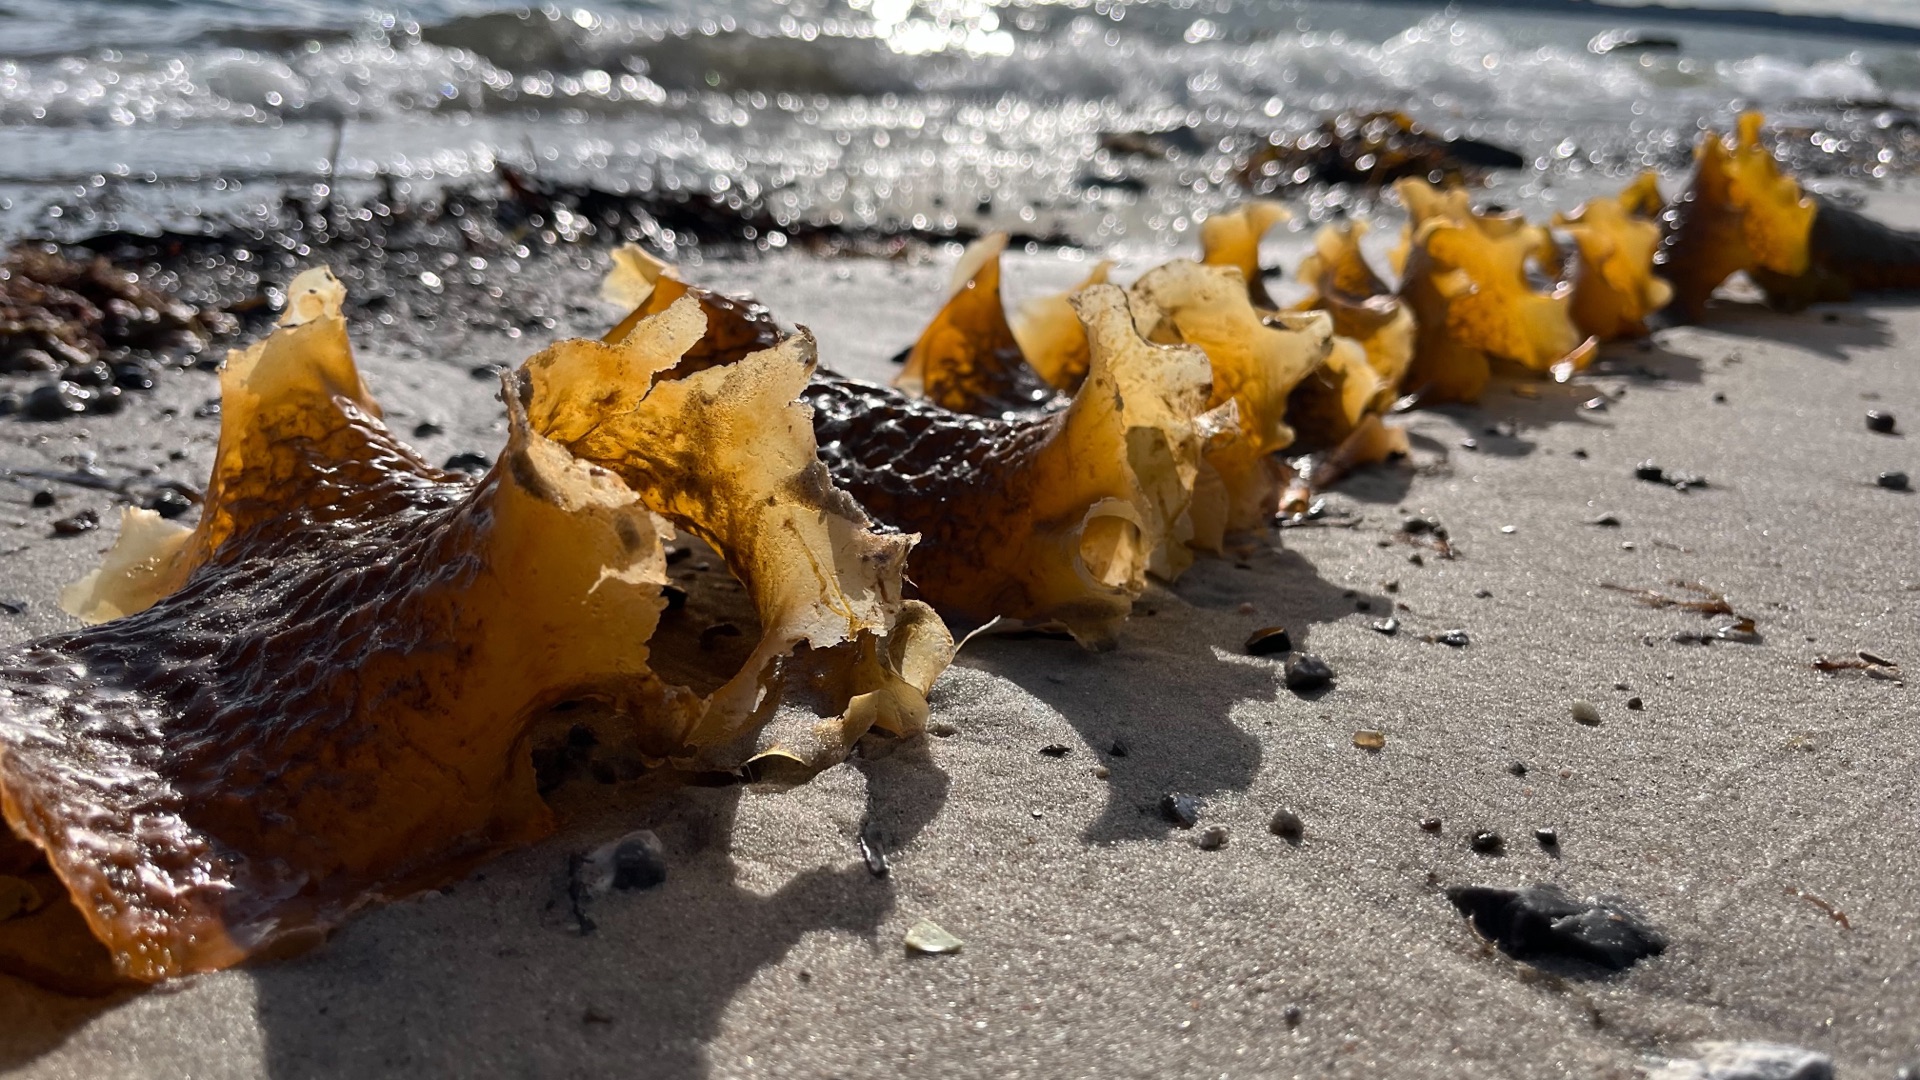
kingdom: Chromista
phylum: Ochrophyta
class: Phaeophyceae
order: Laminariales
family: Laminariaceae
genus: Saccharina
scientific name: Saccharina latissima
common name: Sukkertang
